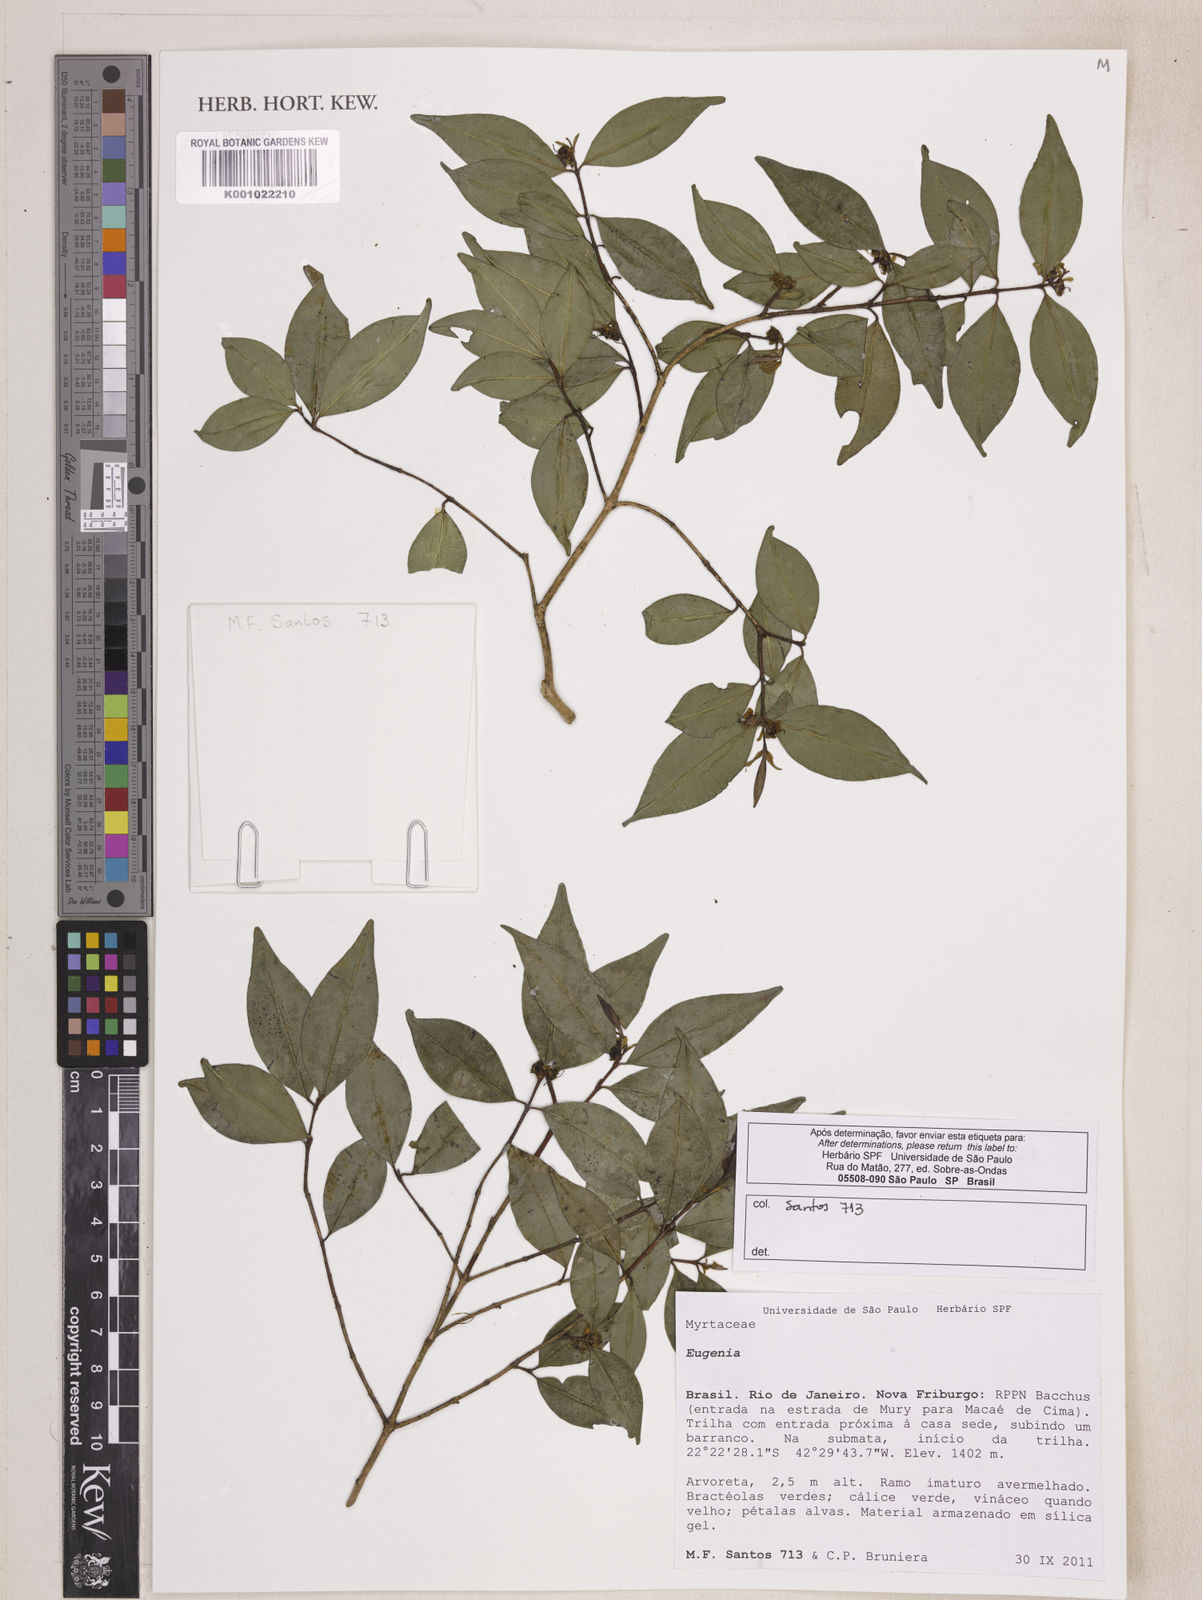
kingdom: Plantae
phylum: Tracheophyta
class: Magnoliopsida
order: Myrtales
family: Myrtaceae
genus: Eugenia
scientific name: Eugenia expansa
